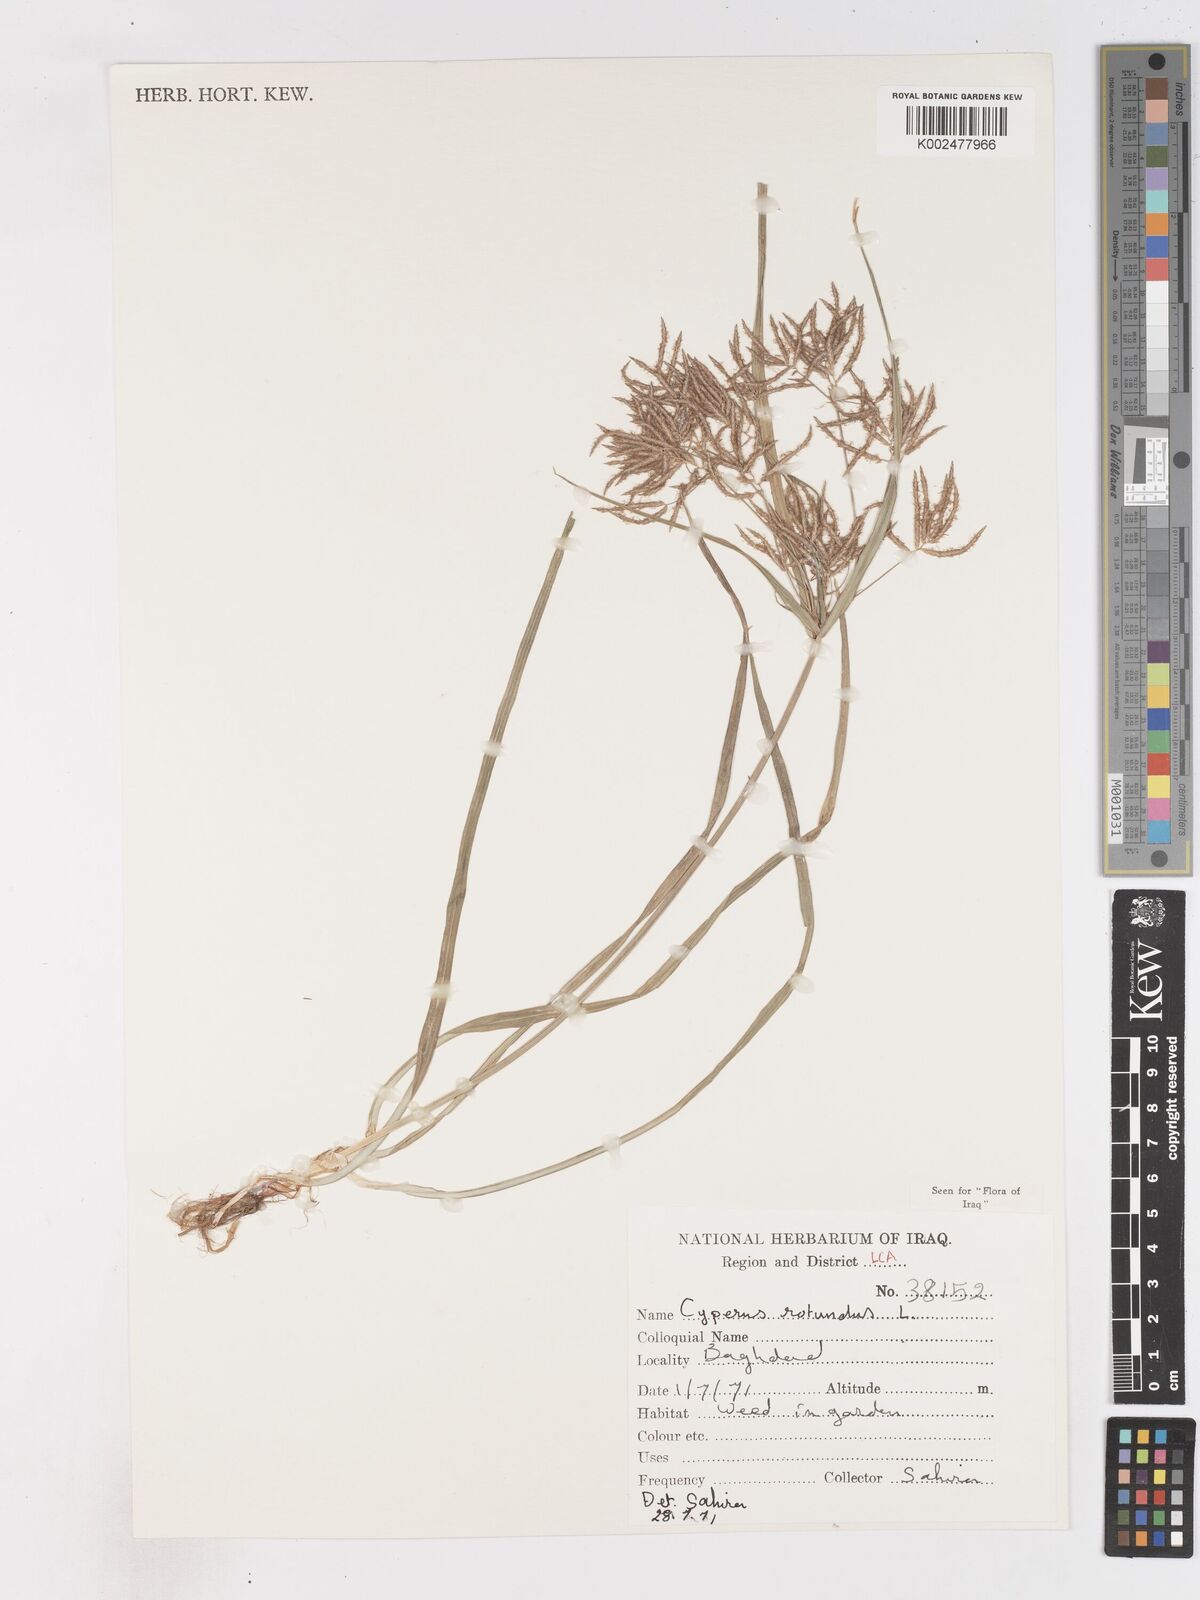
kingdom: Plantae
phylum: Tracheophyta
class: Liliopsida
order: Poales
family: Cyperaceae
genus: Cyperus
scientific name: Cyperus rotundus
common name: Nutgrass
